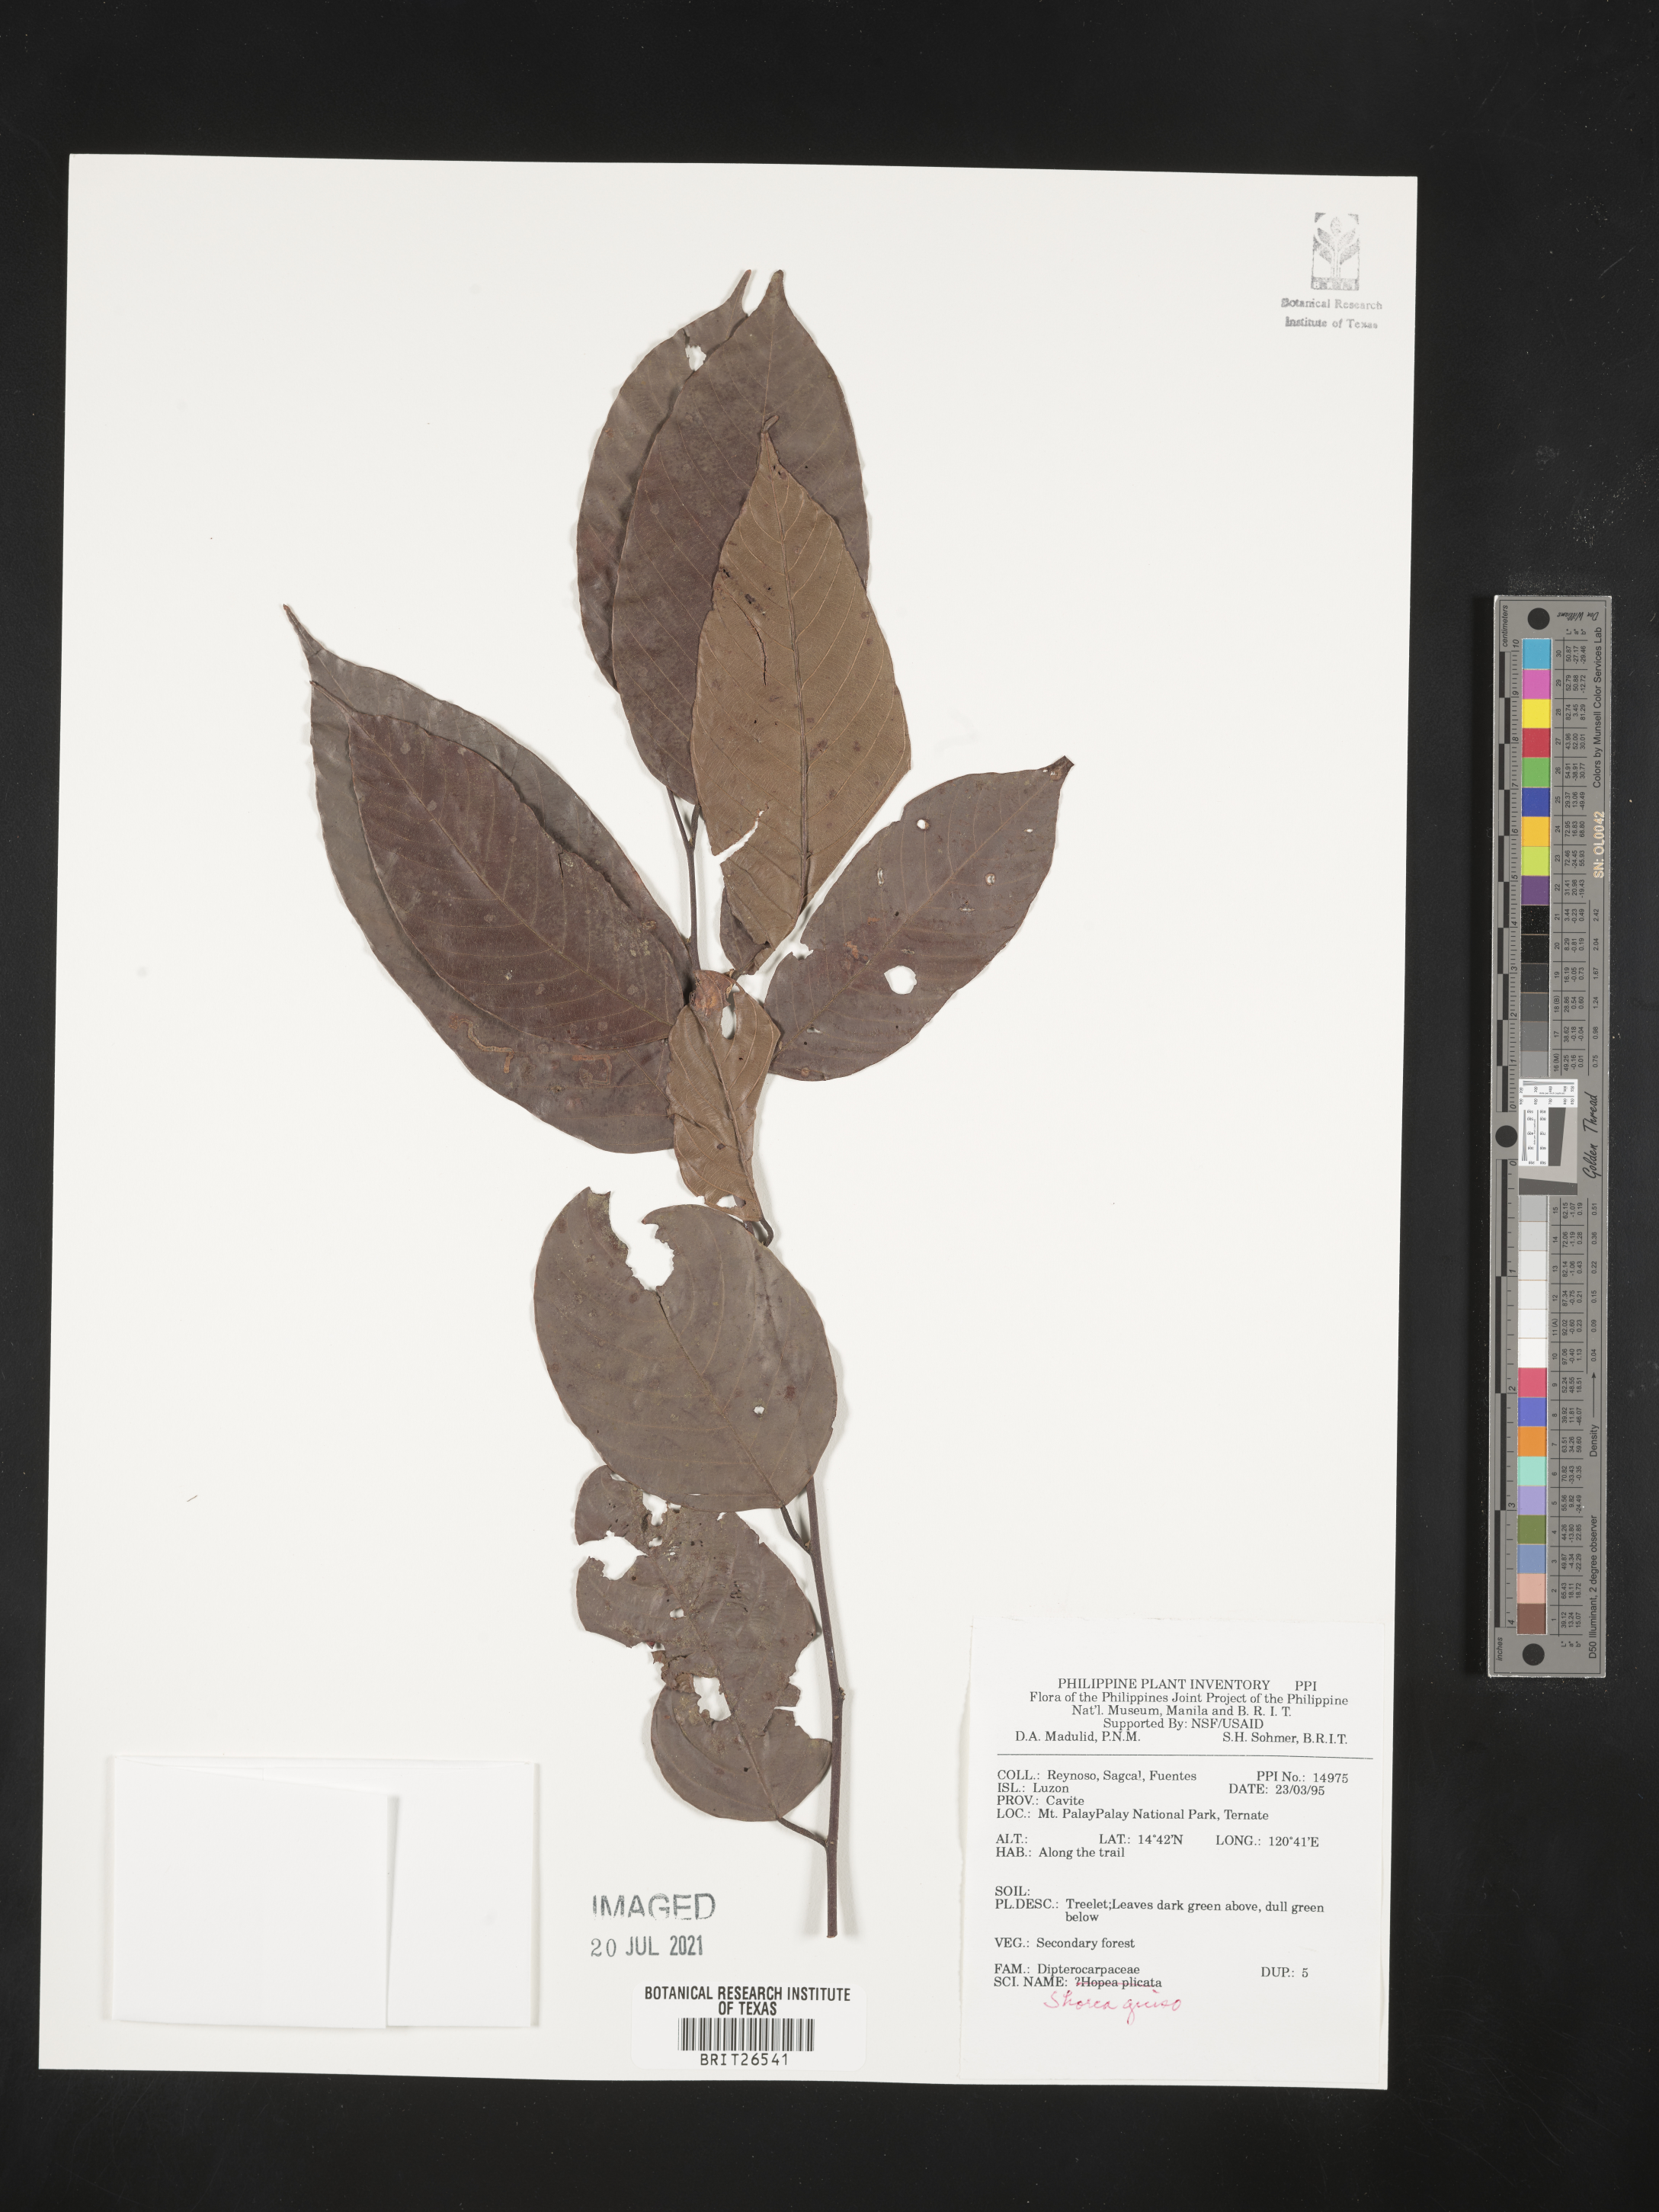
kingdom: Plantae
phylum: Tracheophyta
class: Magnoliopsida
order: Malvales
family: Dipterocarpaceae
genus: Shorea
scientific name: Shorea guiso
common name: Red balau
